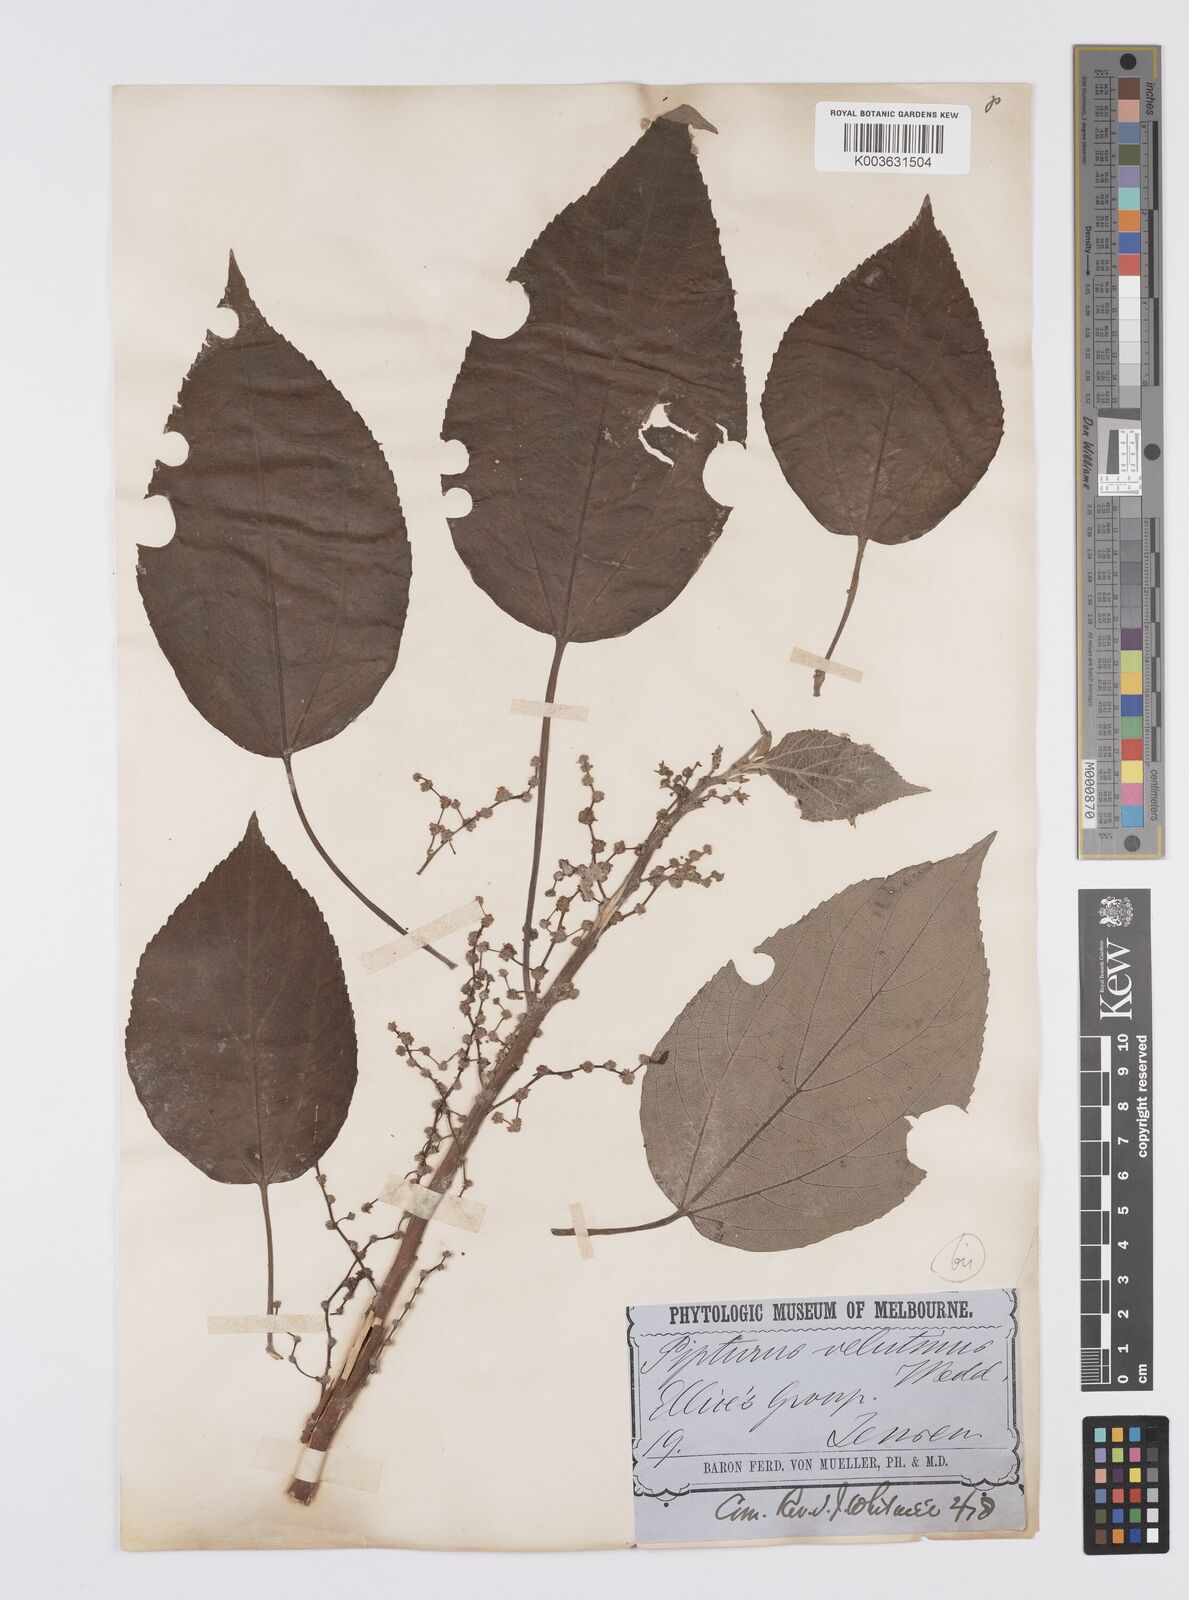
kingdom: Plantae
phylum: Tracheophyta
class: Magnoliopsida
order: Rosales
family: Urticaceae
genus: Pipturus
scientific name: Pipturus argenteus
